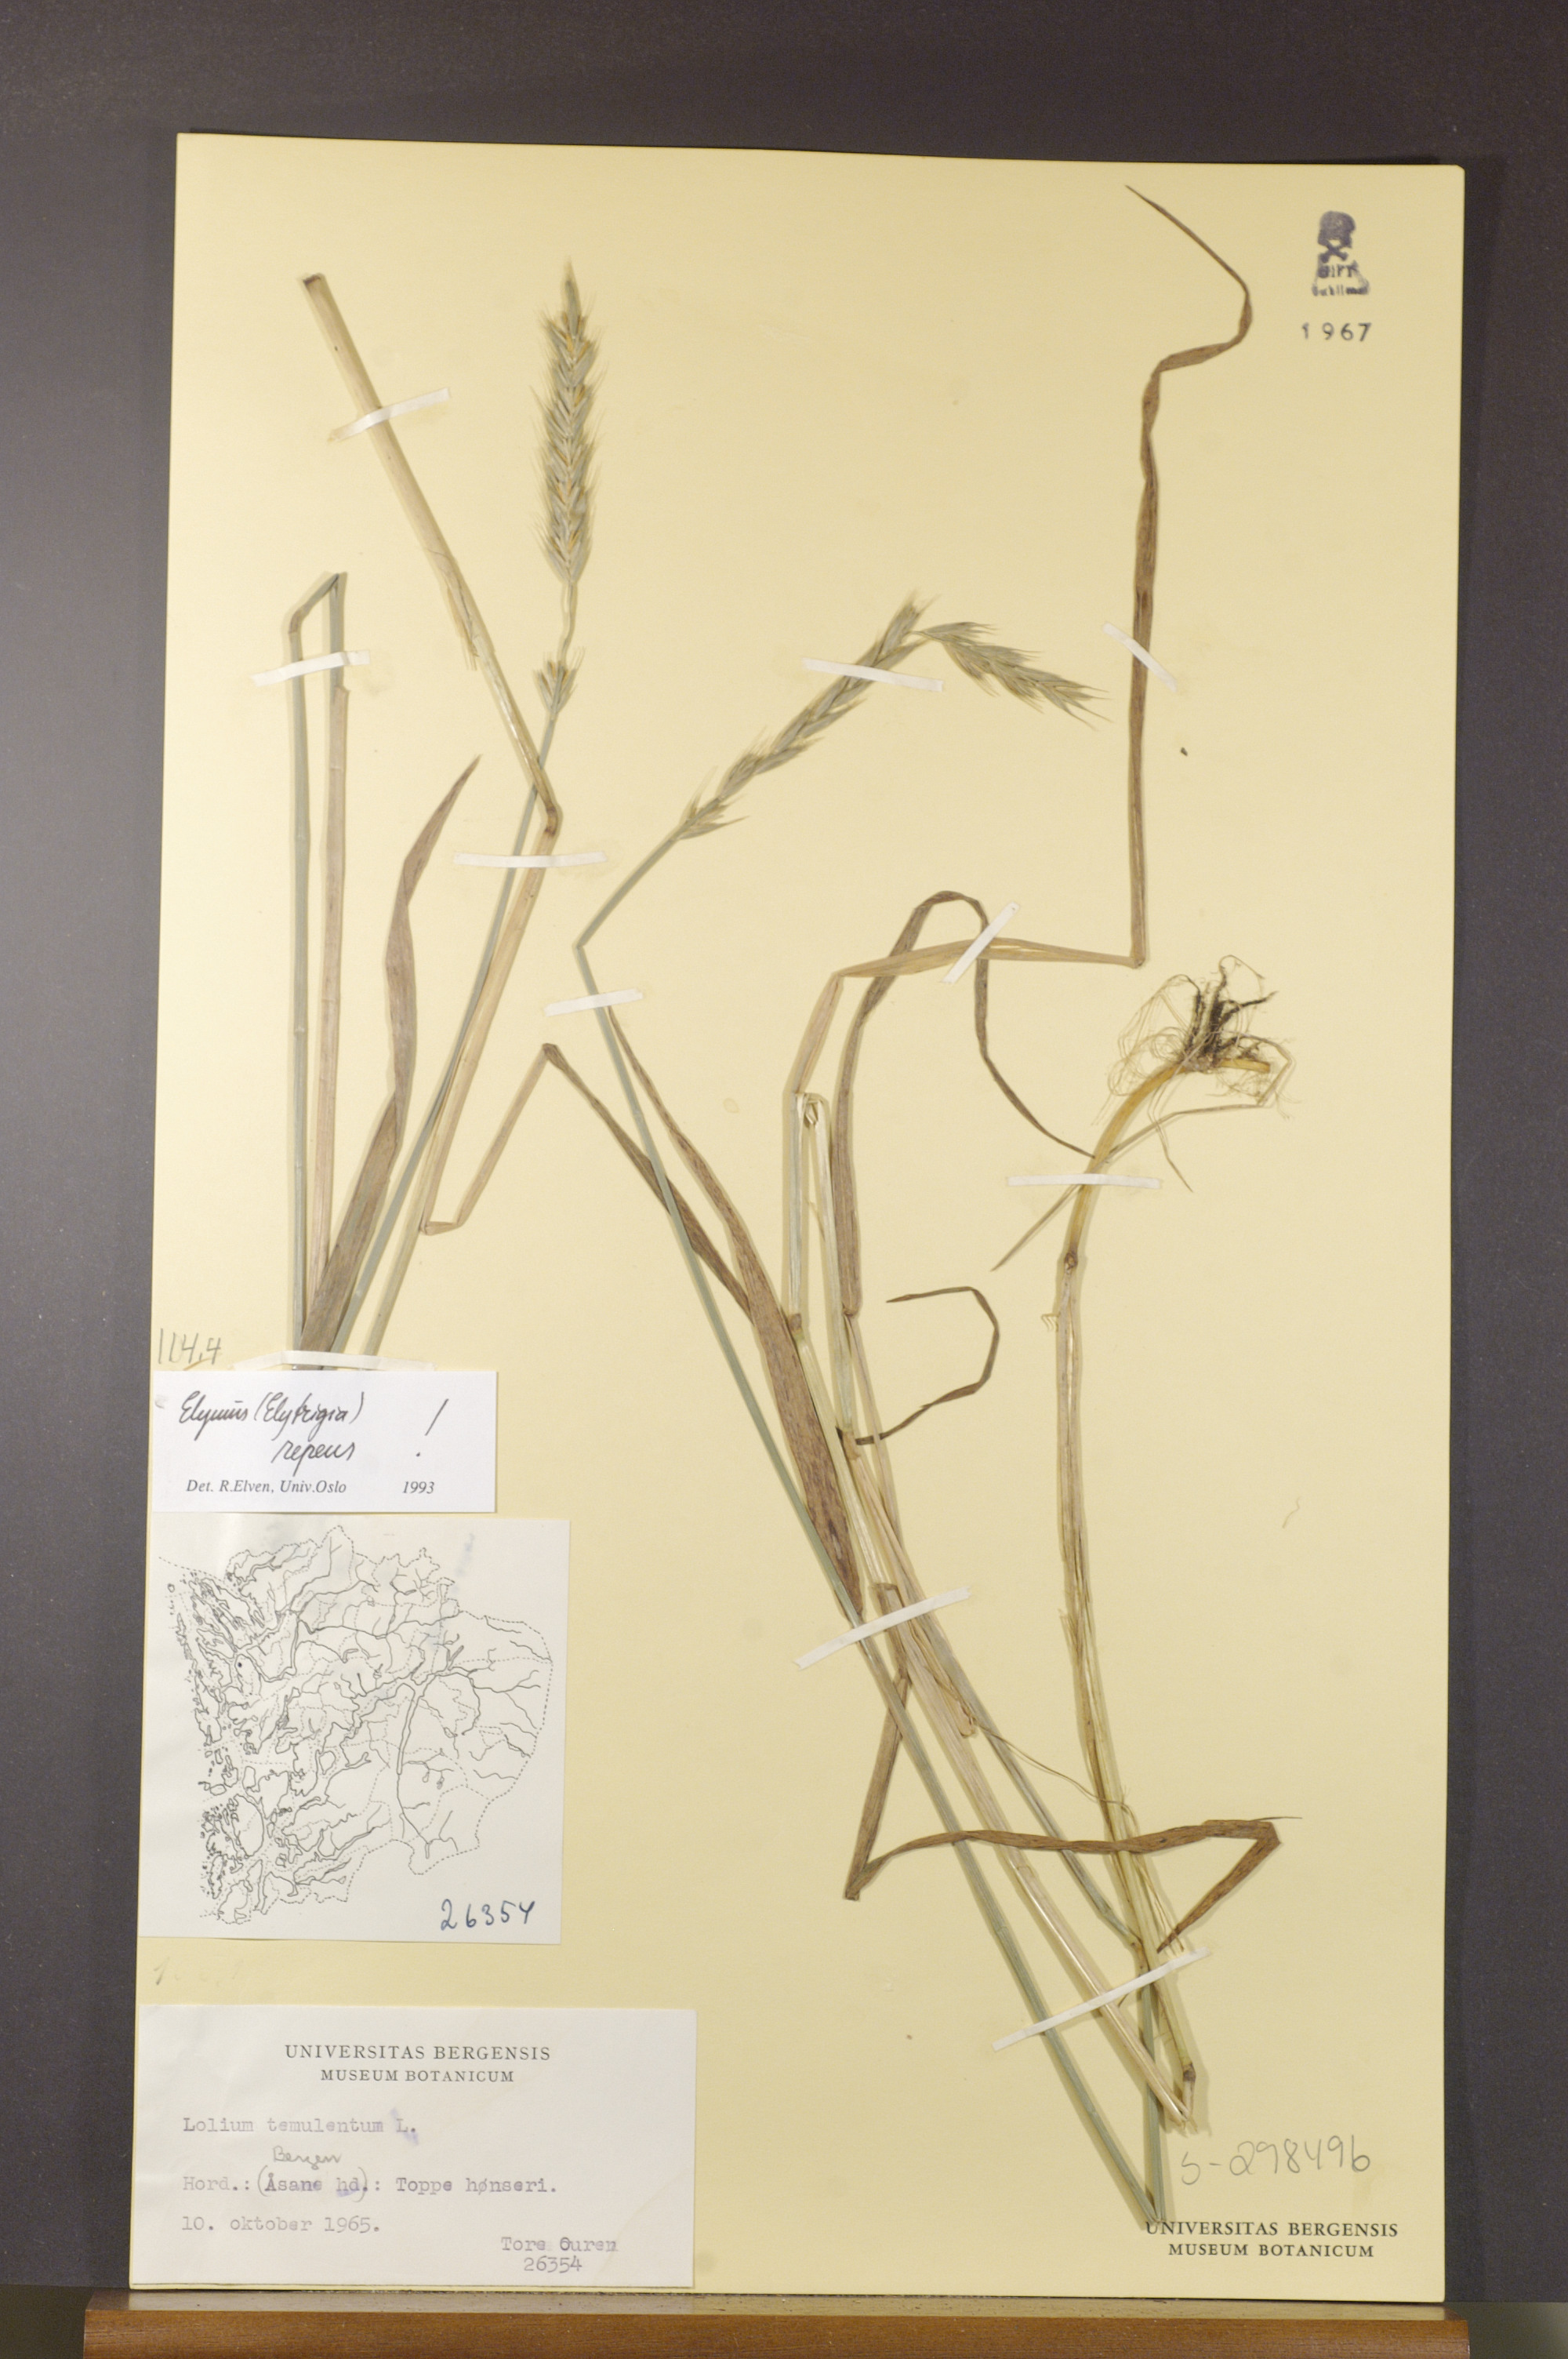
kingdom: Plantae
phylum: Tracheophyta
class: Liliopsida
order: Poales
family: Poaceae
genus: Elymus
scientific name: Elymus repens
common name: Quackgrass
